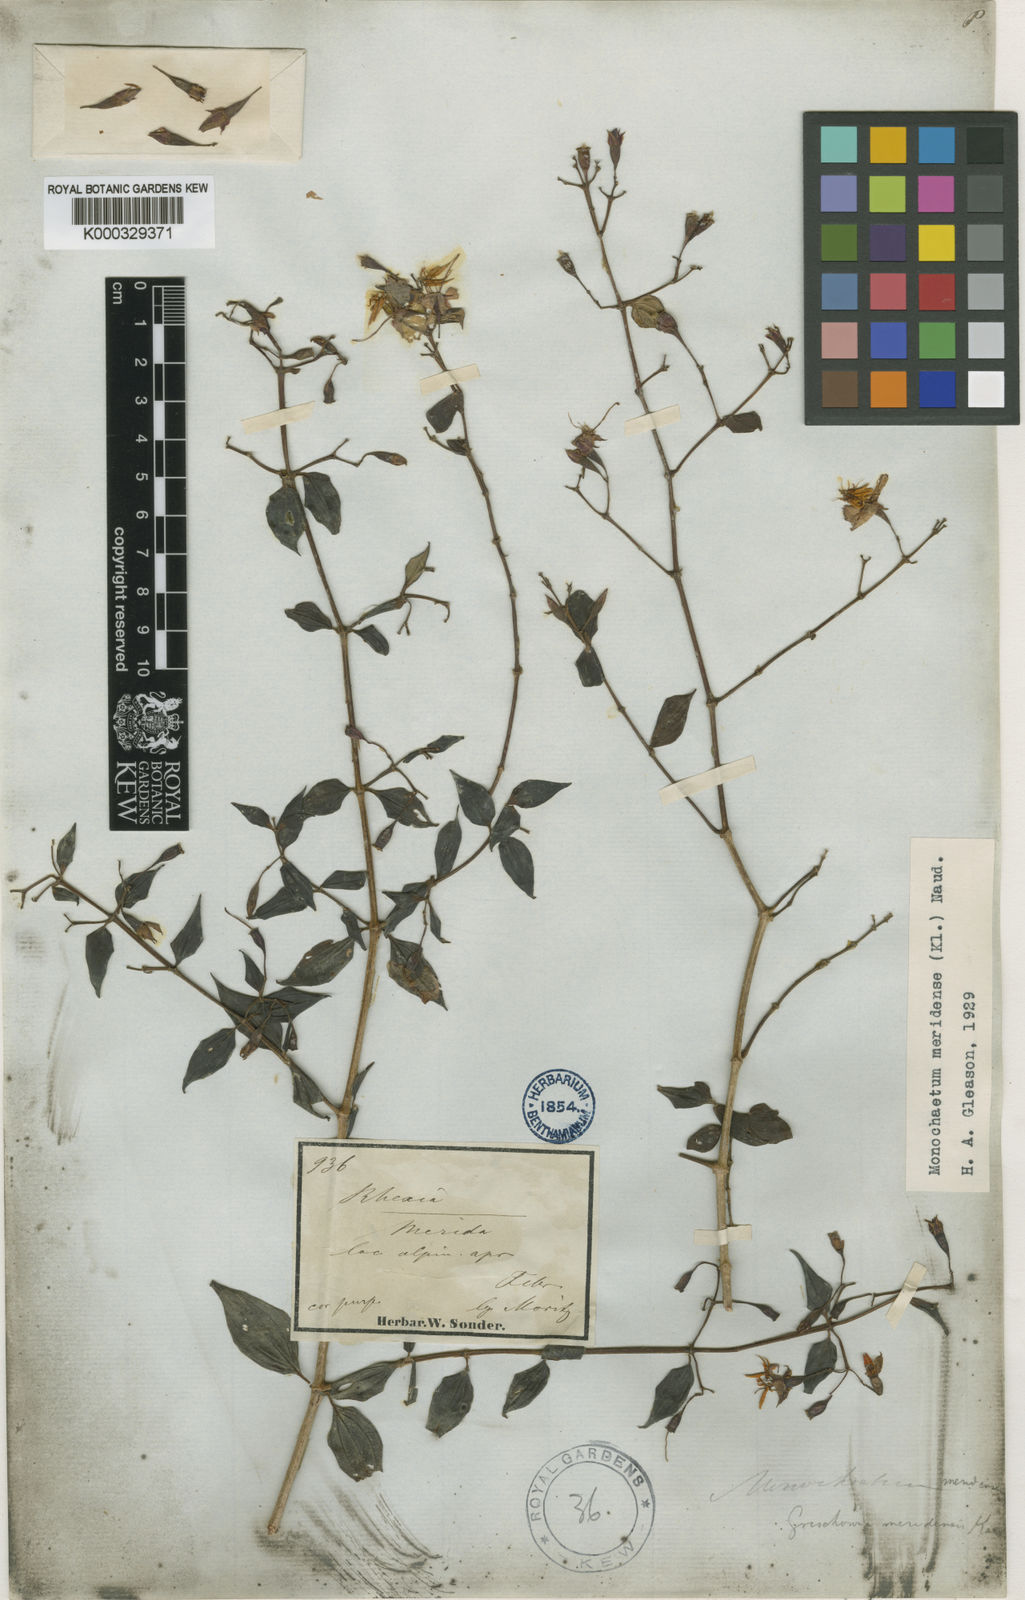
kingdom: Plantae
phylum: Tracheophyta
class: Magnoliopsida
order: Myrtales
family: Melastomataceae
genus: Monochaetum
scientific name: Monochaetum meridense
